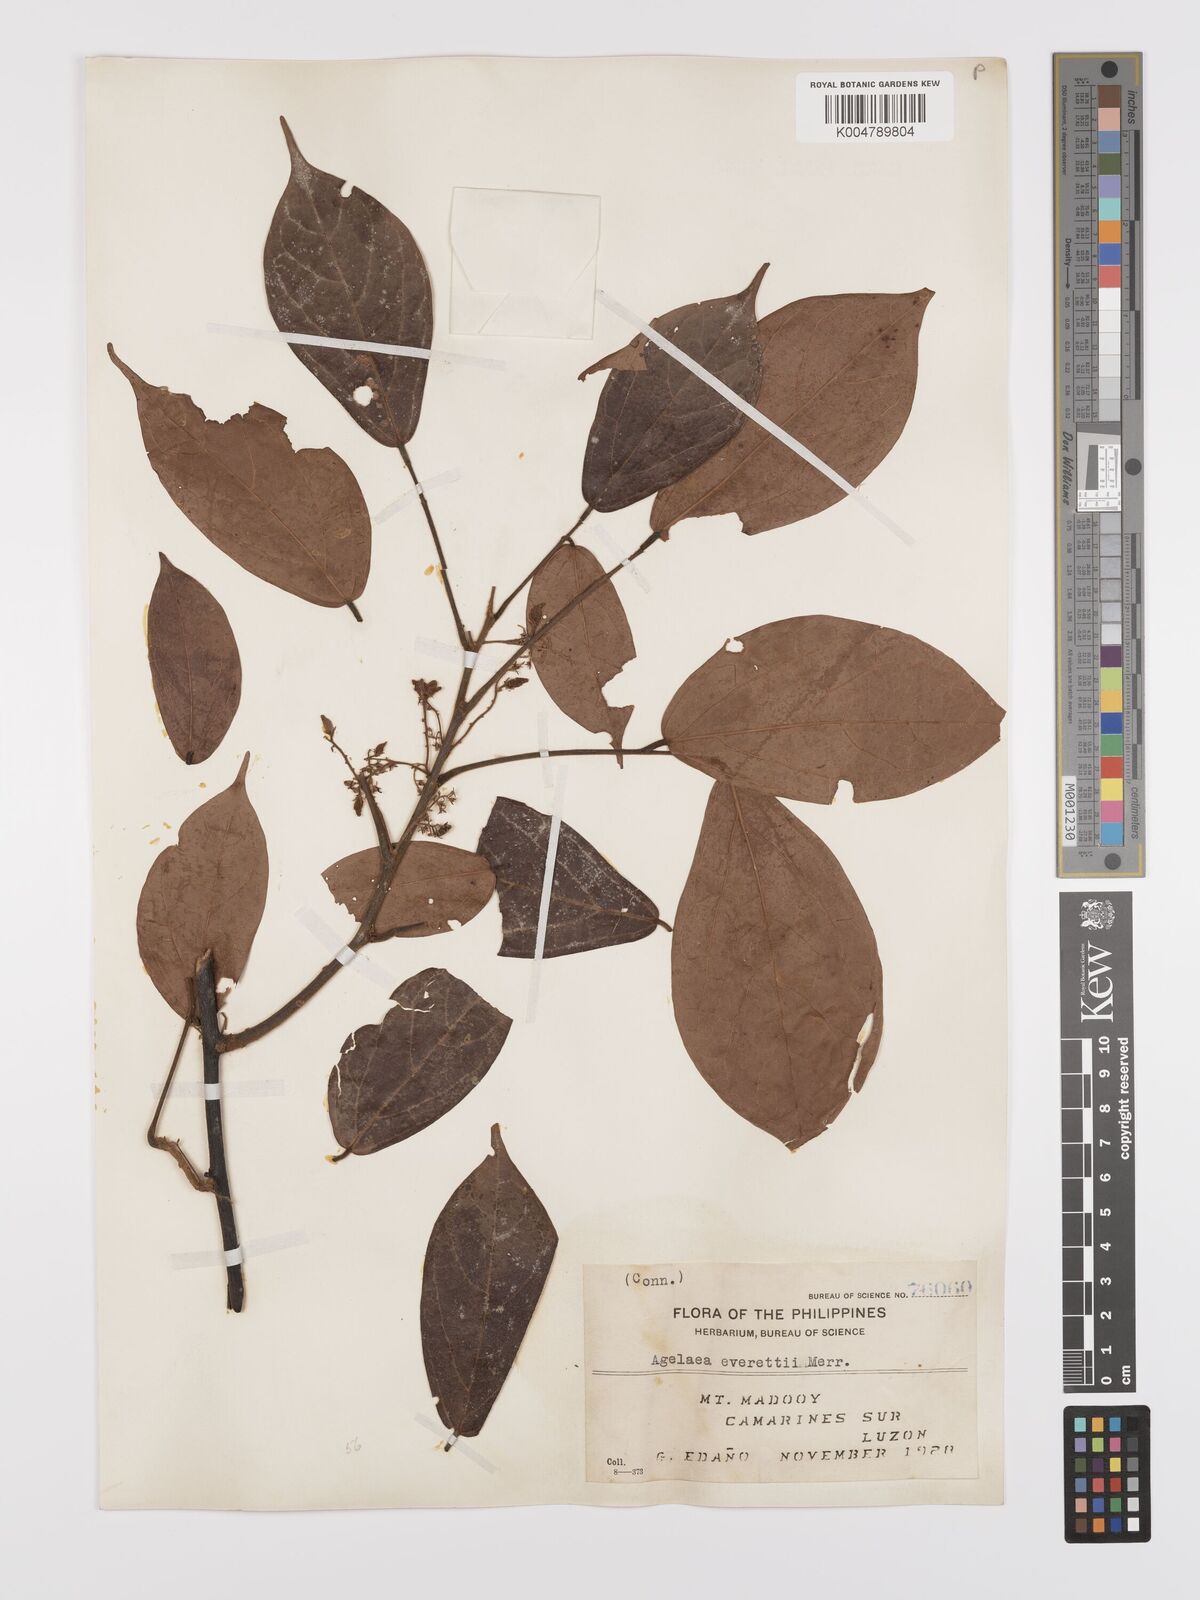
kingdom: Plantae
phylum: Tracheophyta
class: Magnoliopsida
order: Oxalidales
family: Connaraceae
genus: Agelaea
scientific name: Agelaea borneensis
